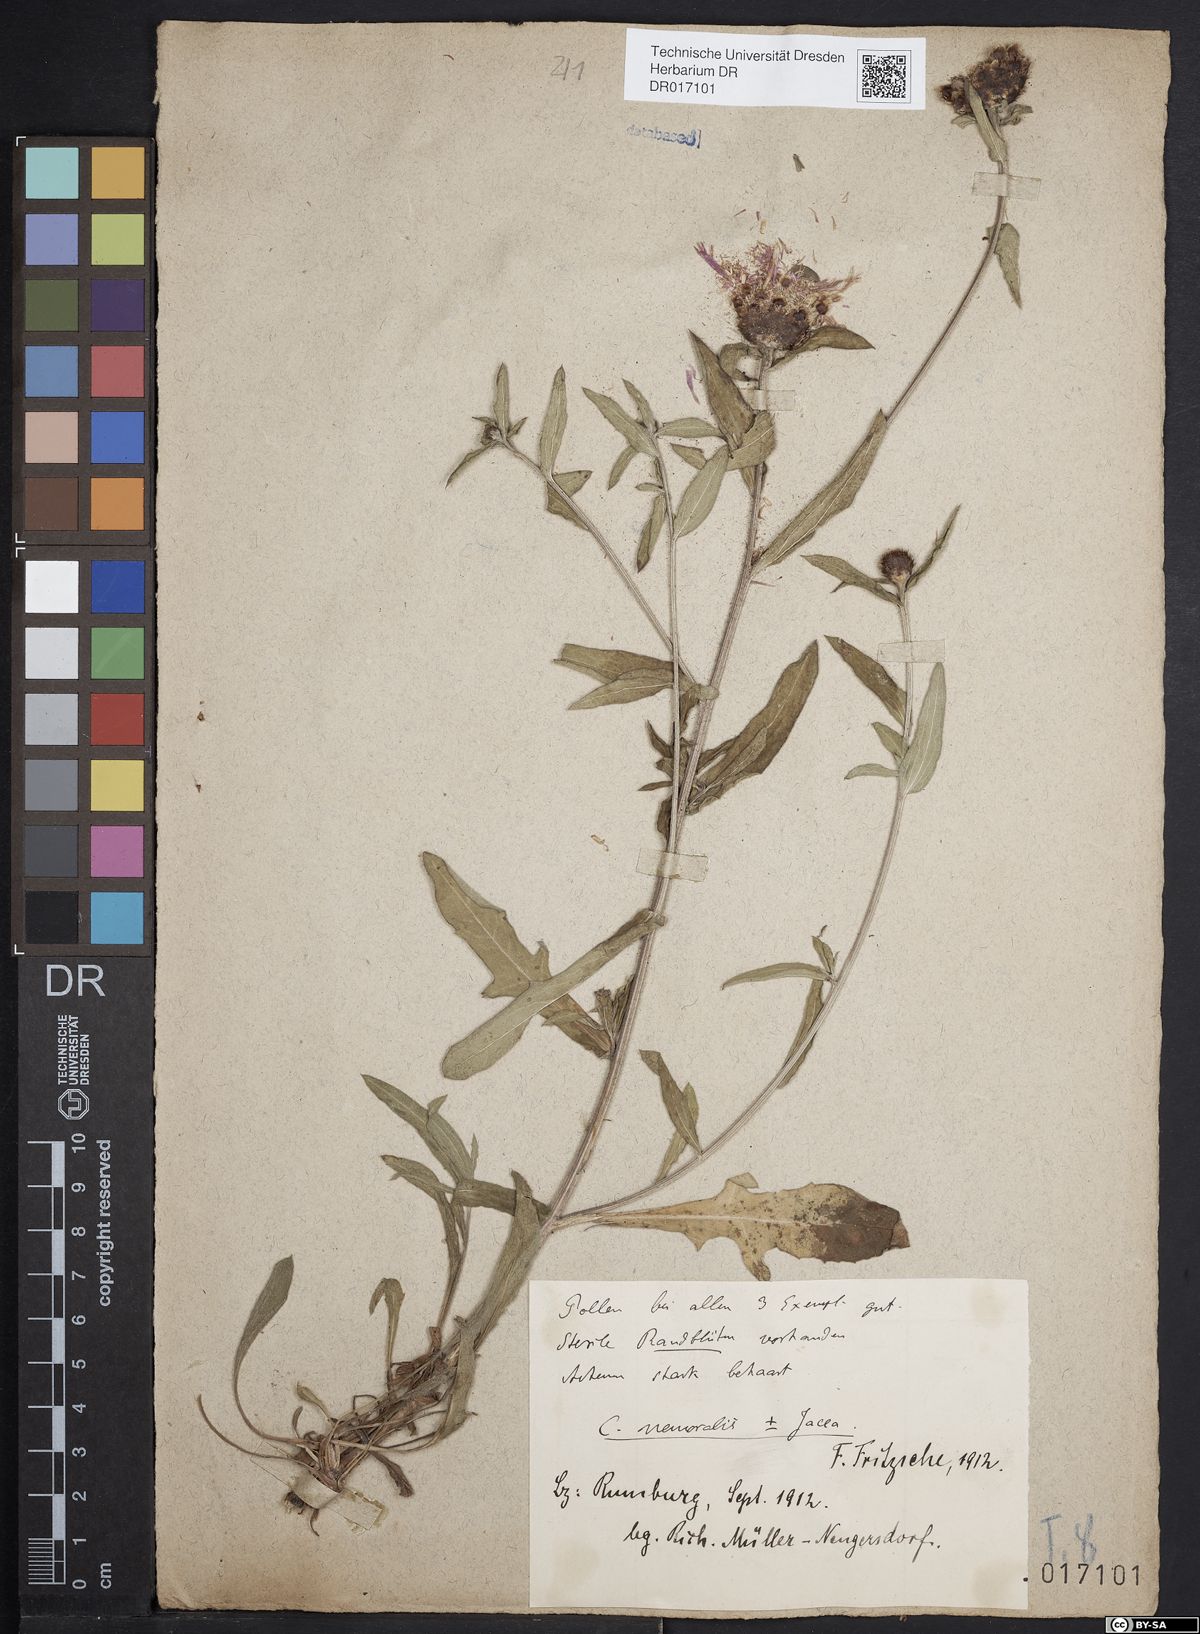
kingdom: Plantae
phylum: Tracheophyta
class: Magnoliopsida
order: Asterales
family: Asteraceae
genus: Centaurea
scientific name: Centaurea gerstlaueri
